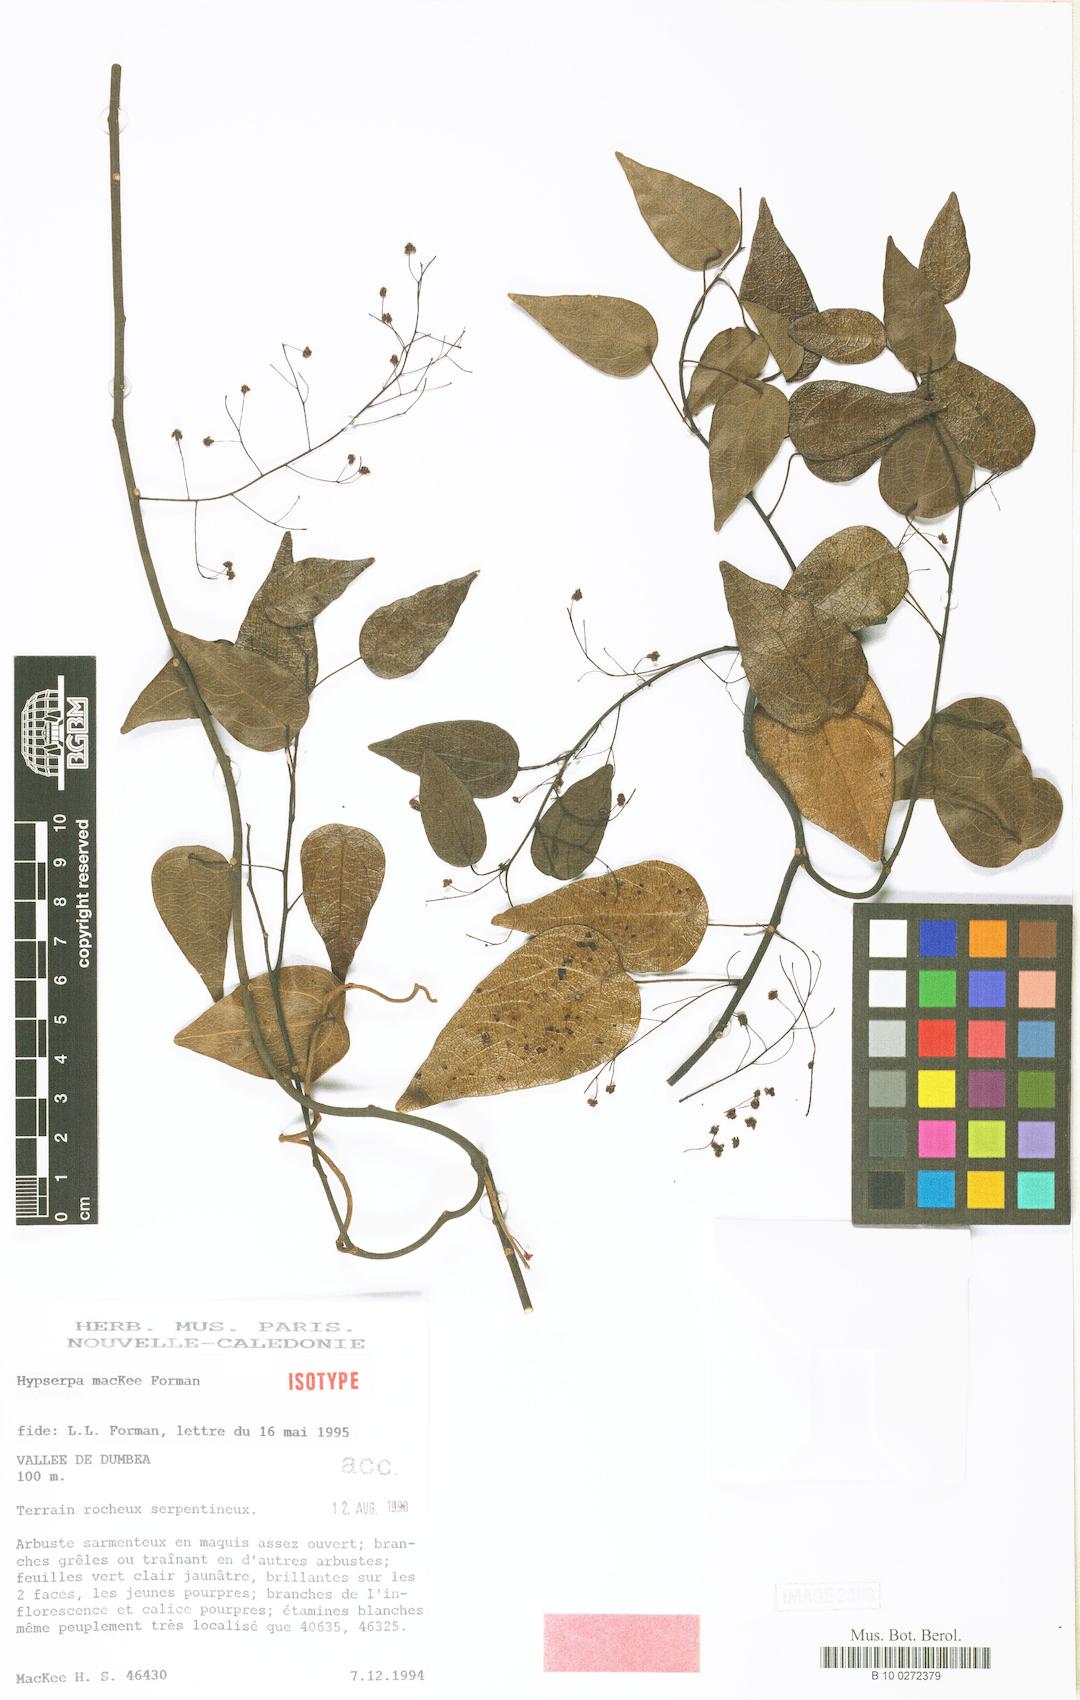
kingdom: Plantae
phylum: Tracheophyta
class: Magnoliopsida
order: Ranunculales
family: Menispermaceae
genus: Hypserpa
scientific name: Hypserpa mackee
